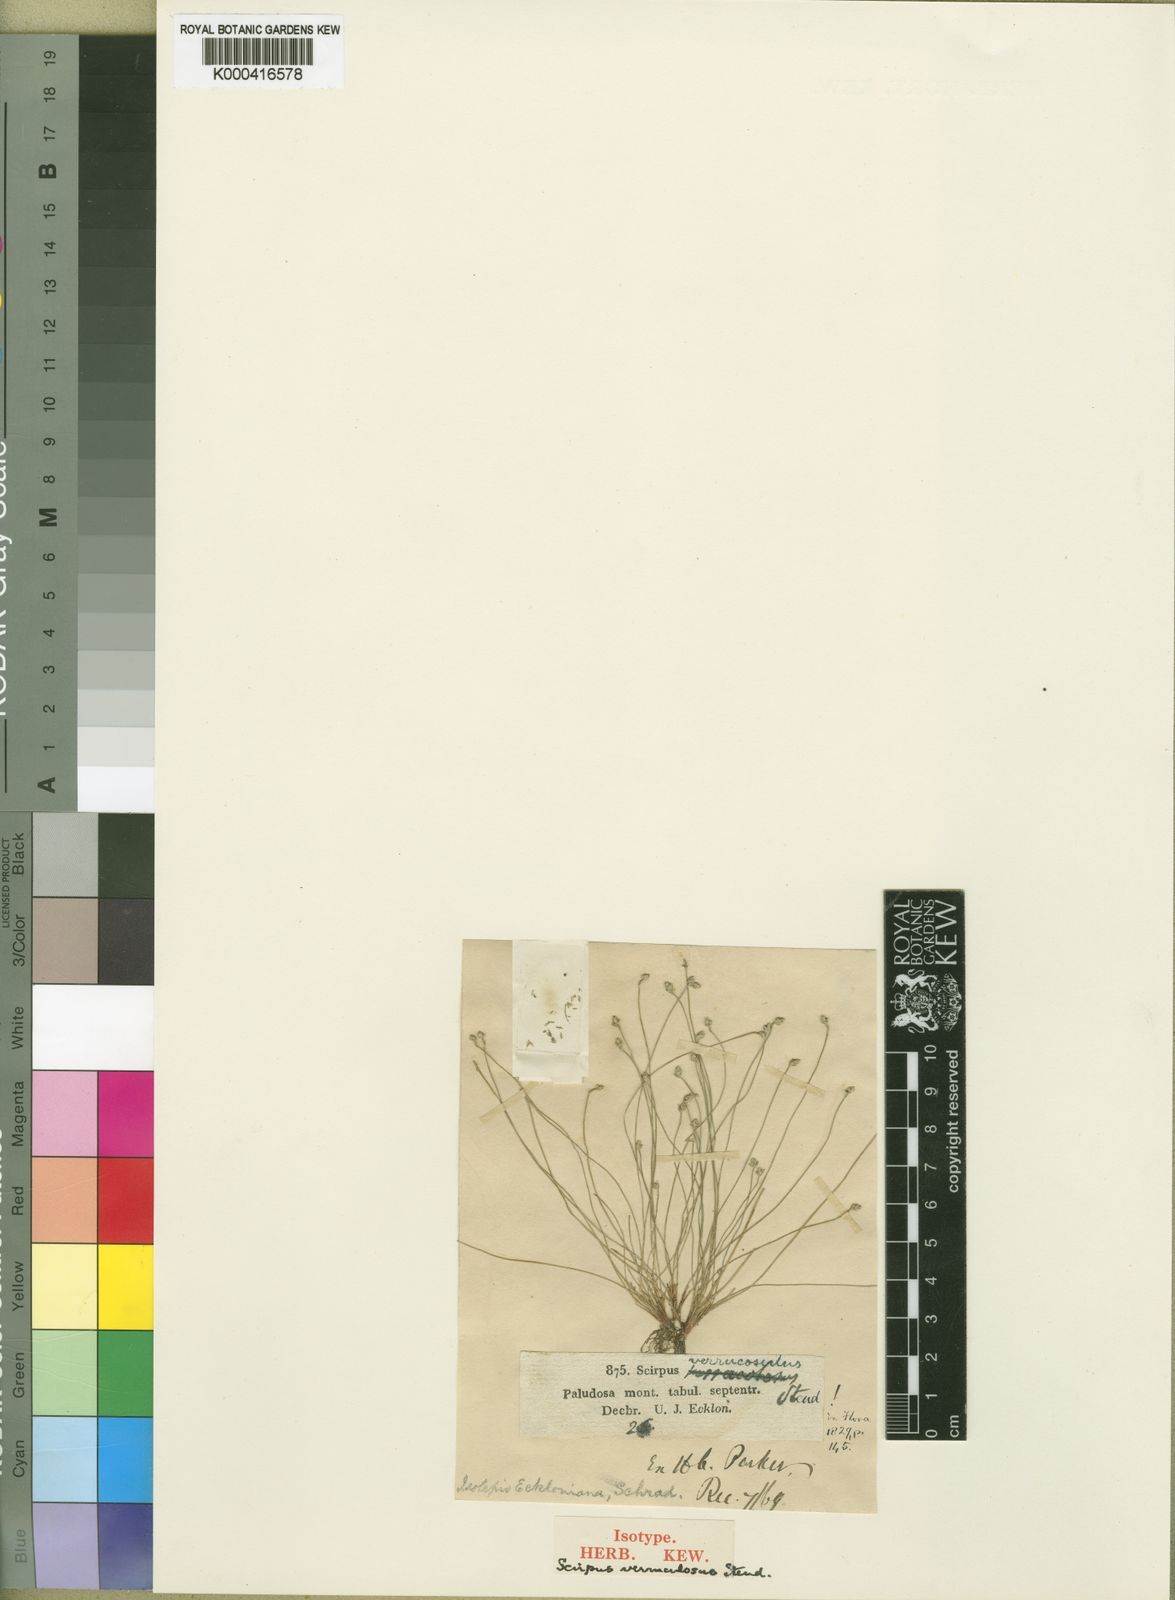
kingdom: Plantae
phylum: Tracheophyta
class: Liliopsida
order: Poales
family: Cyperaceae
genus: Isolepis
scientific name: Isolepis cernua
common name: Slender club-rush
